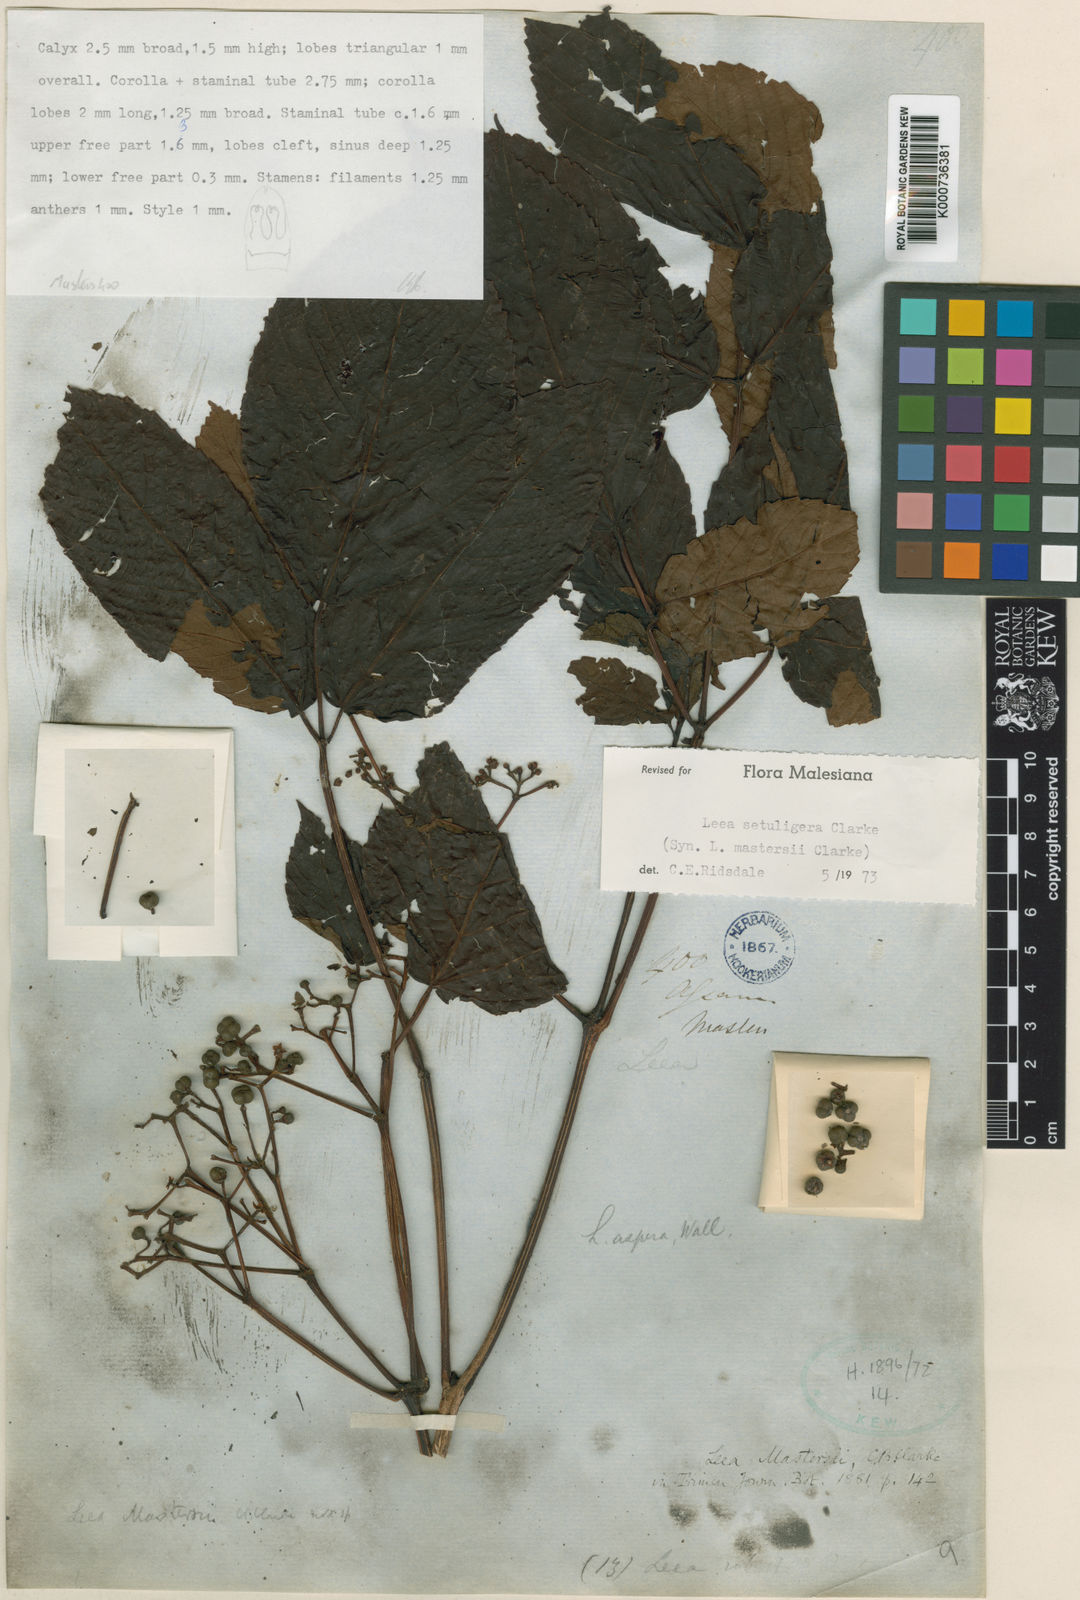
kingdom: Plantae
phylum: Tracheophyta
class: Magnoliopsida
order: Vitales
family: Vitaceae
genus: Leea
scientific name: Leea setuligera
